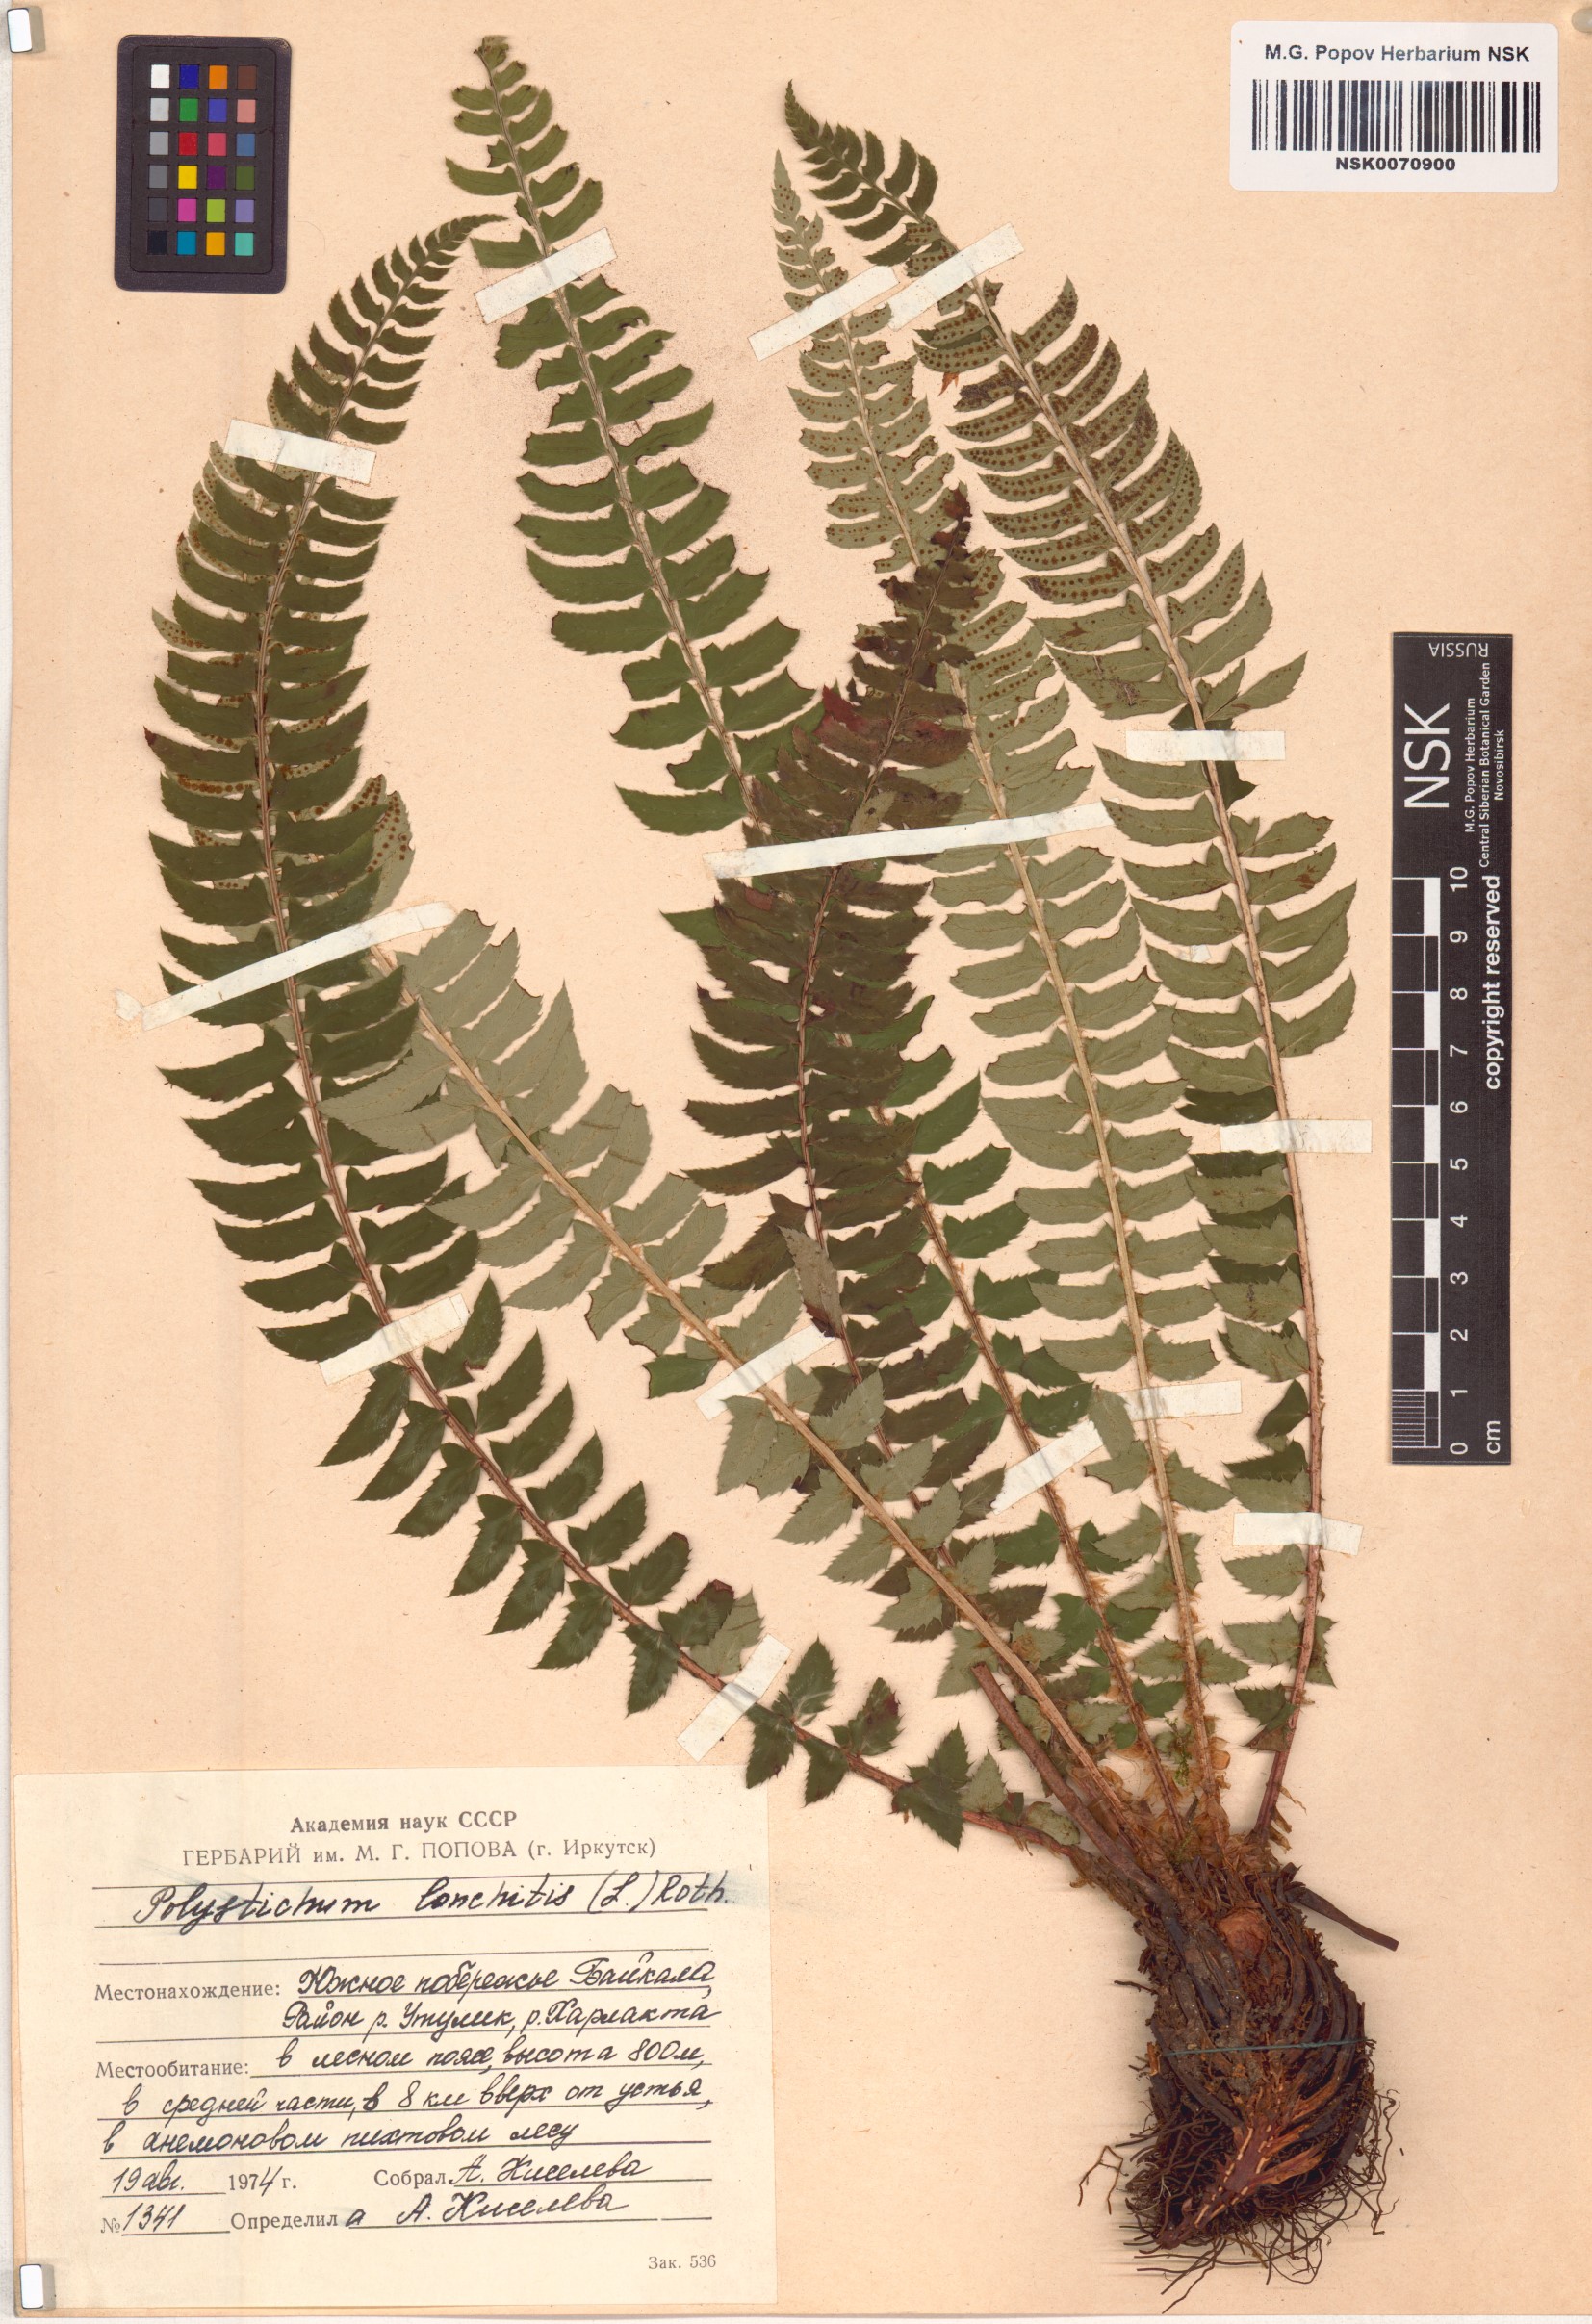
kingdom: Plantae
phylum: Tracheophyta
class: Polypodiopsida
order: Polypodiales
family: Dryopteridaceae
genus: Polystichum
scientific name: Polystichum lonchitis
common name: Holly fern
